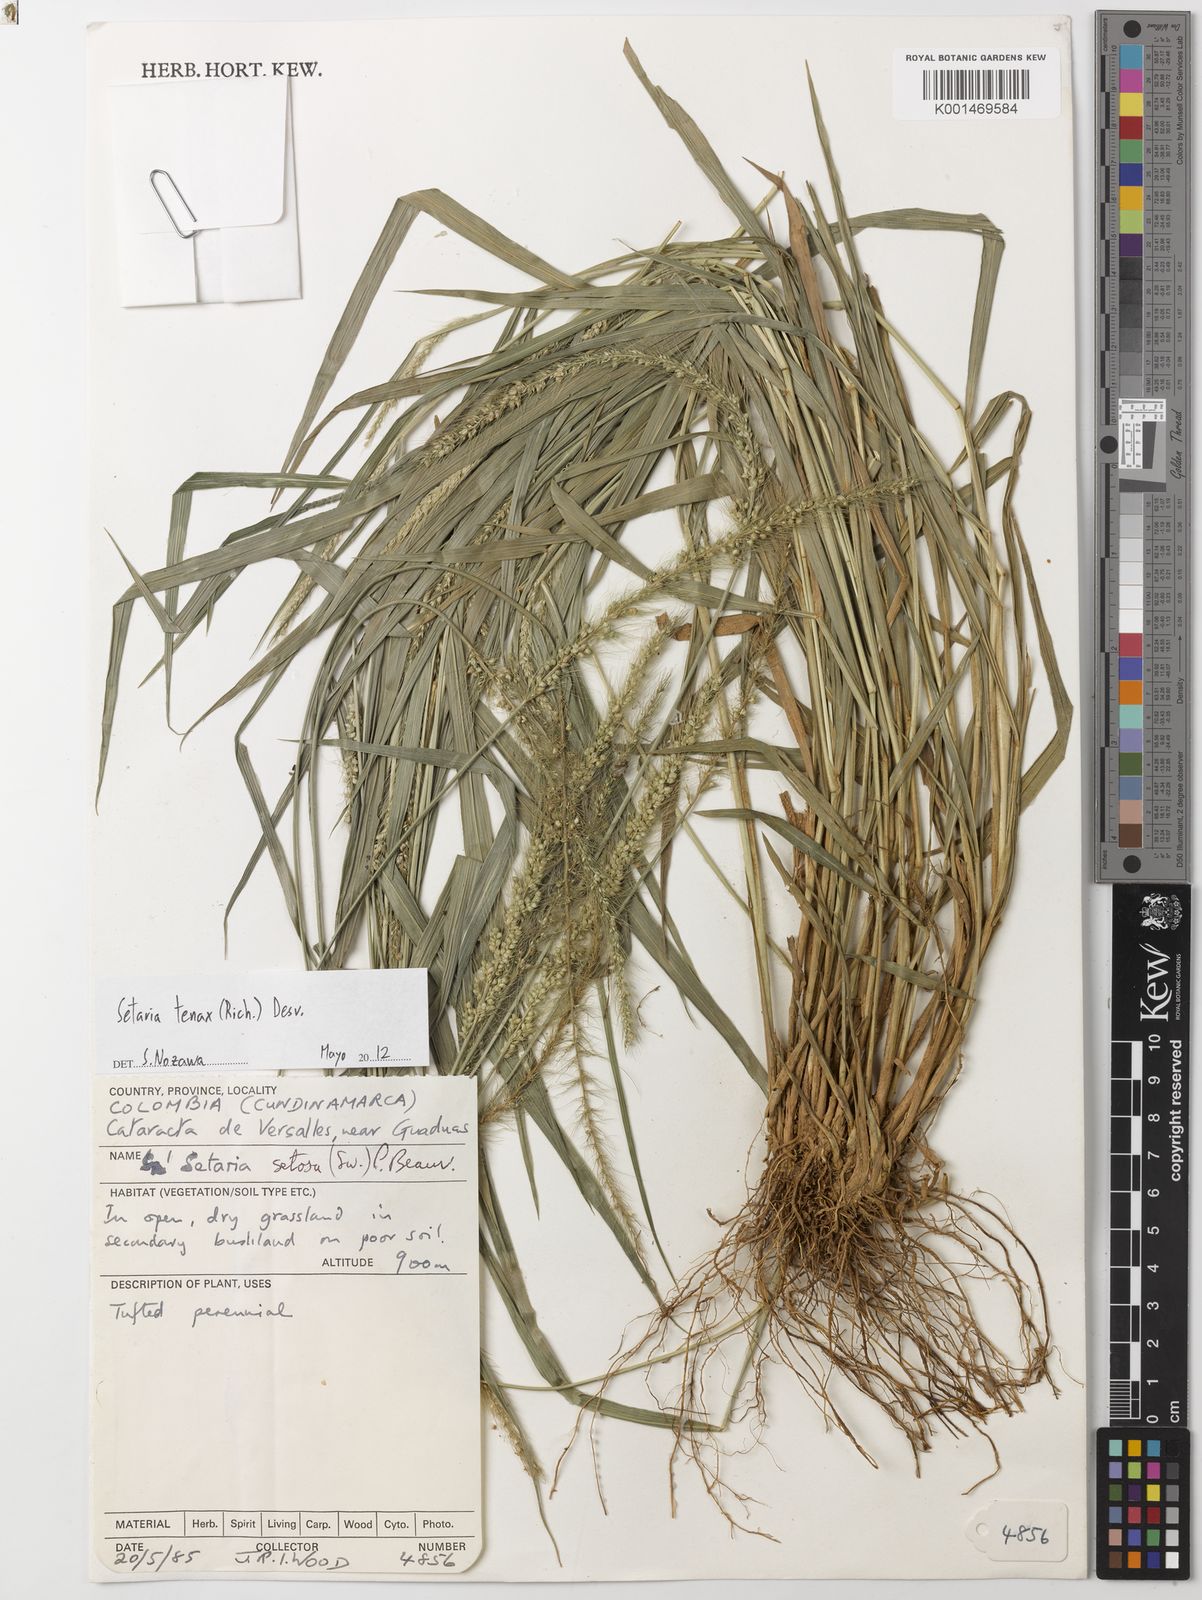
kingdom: Plantae
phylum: Tracheophyta
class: Liliopsida
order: Poales
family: Poaceae
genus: Setaria
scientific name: Setaria tenax
